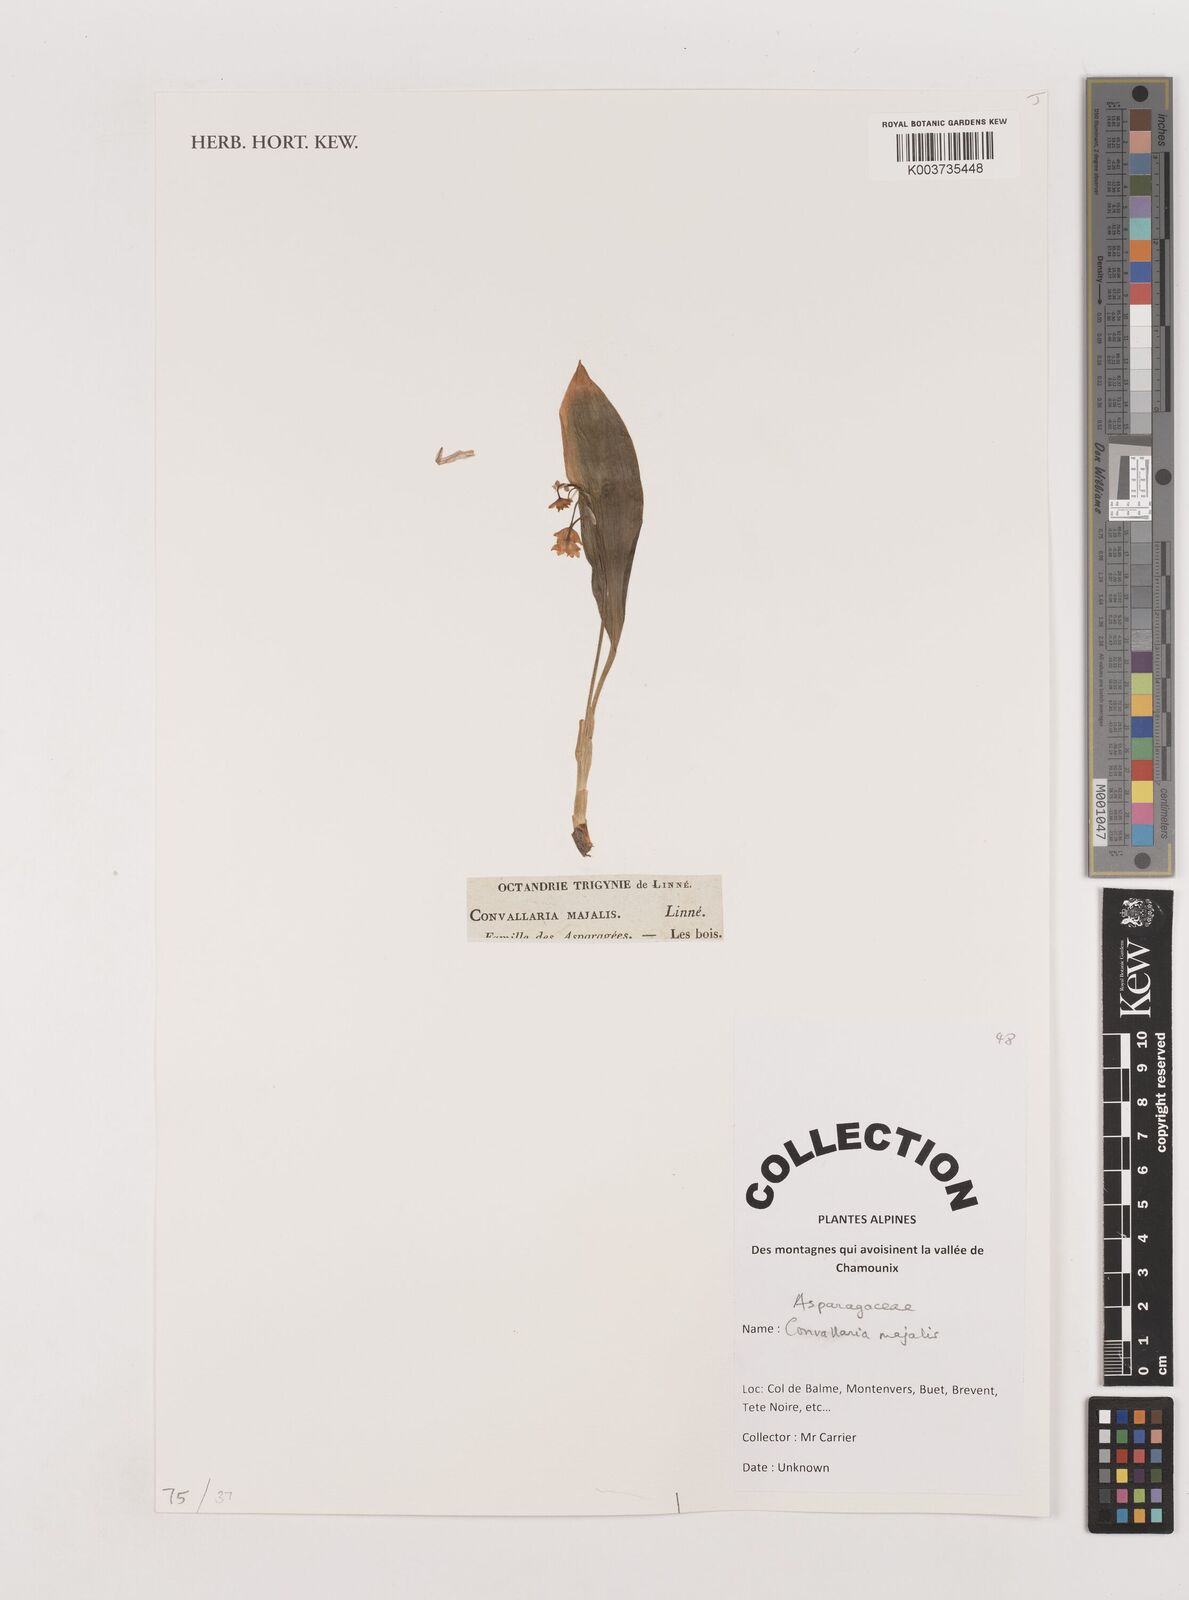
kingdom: Plantae
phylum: Tracheophyta
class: Liliopsida
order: Asparagales
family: Asparagaceae
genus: Convallaria
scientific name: Convallaria majalis
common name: Lily-of-the-valley
